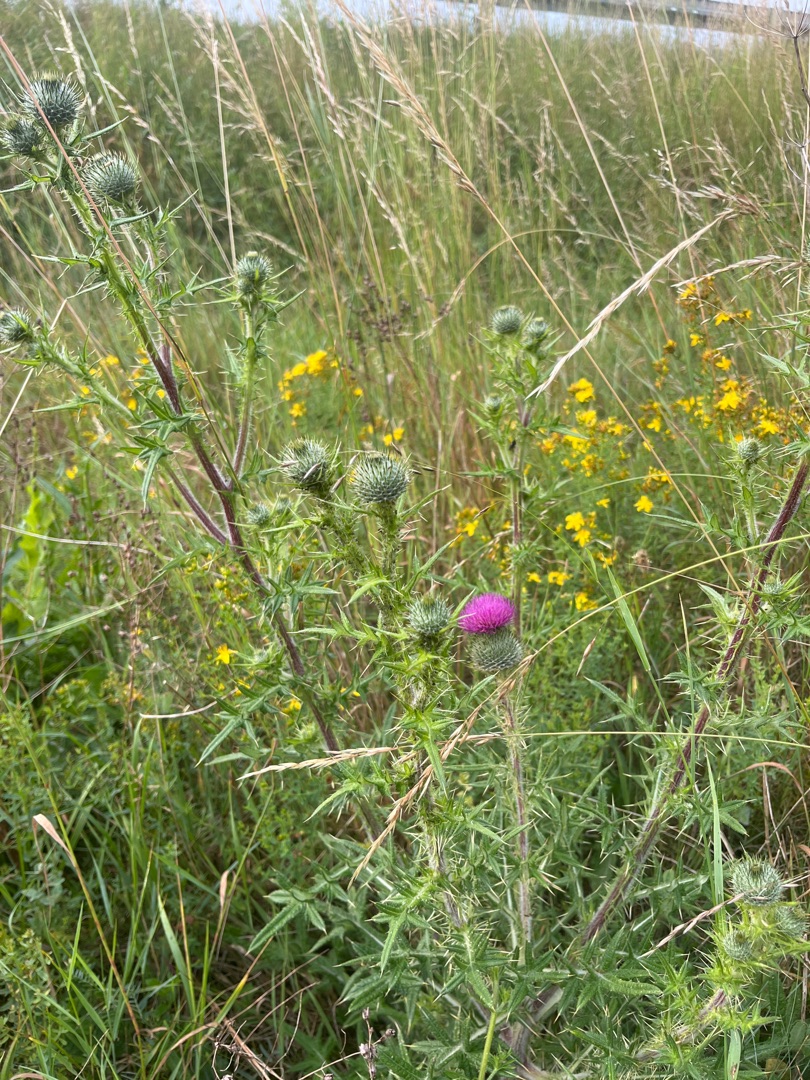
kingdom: Plantae
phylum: Tracheophyta
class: Magnoliopsida
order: Asterales
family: Asteraceae
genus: Cirsium
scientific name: Cirsium vulgare
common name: Horse-tidsel
